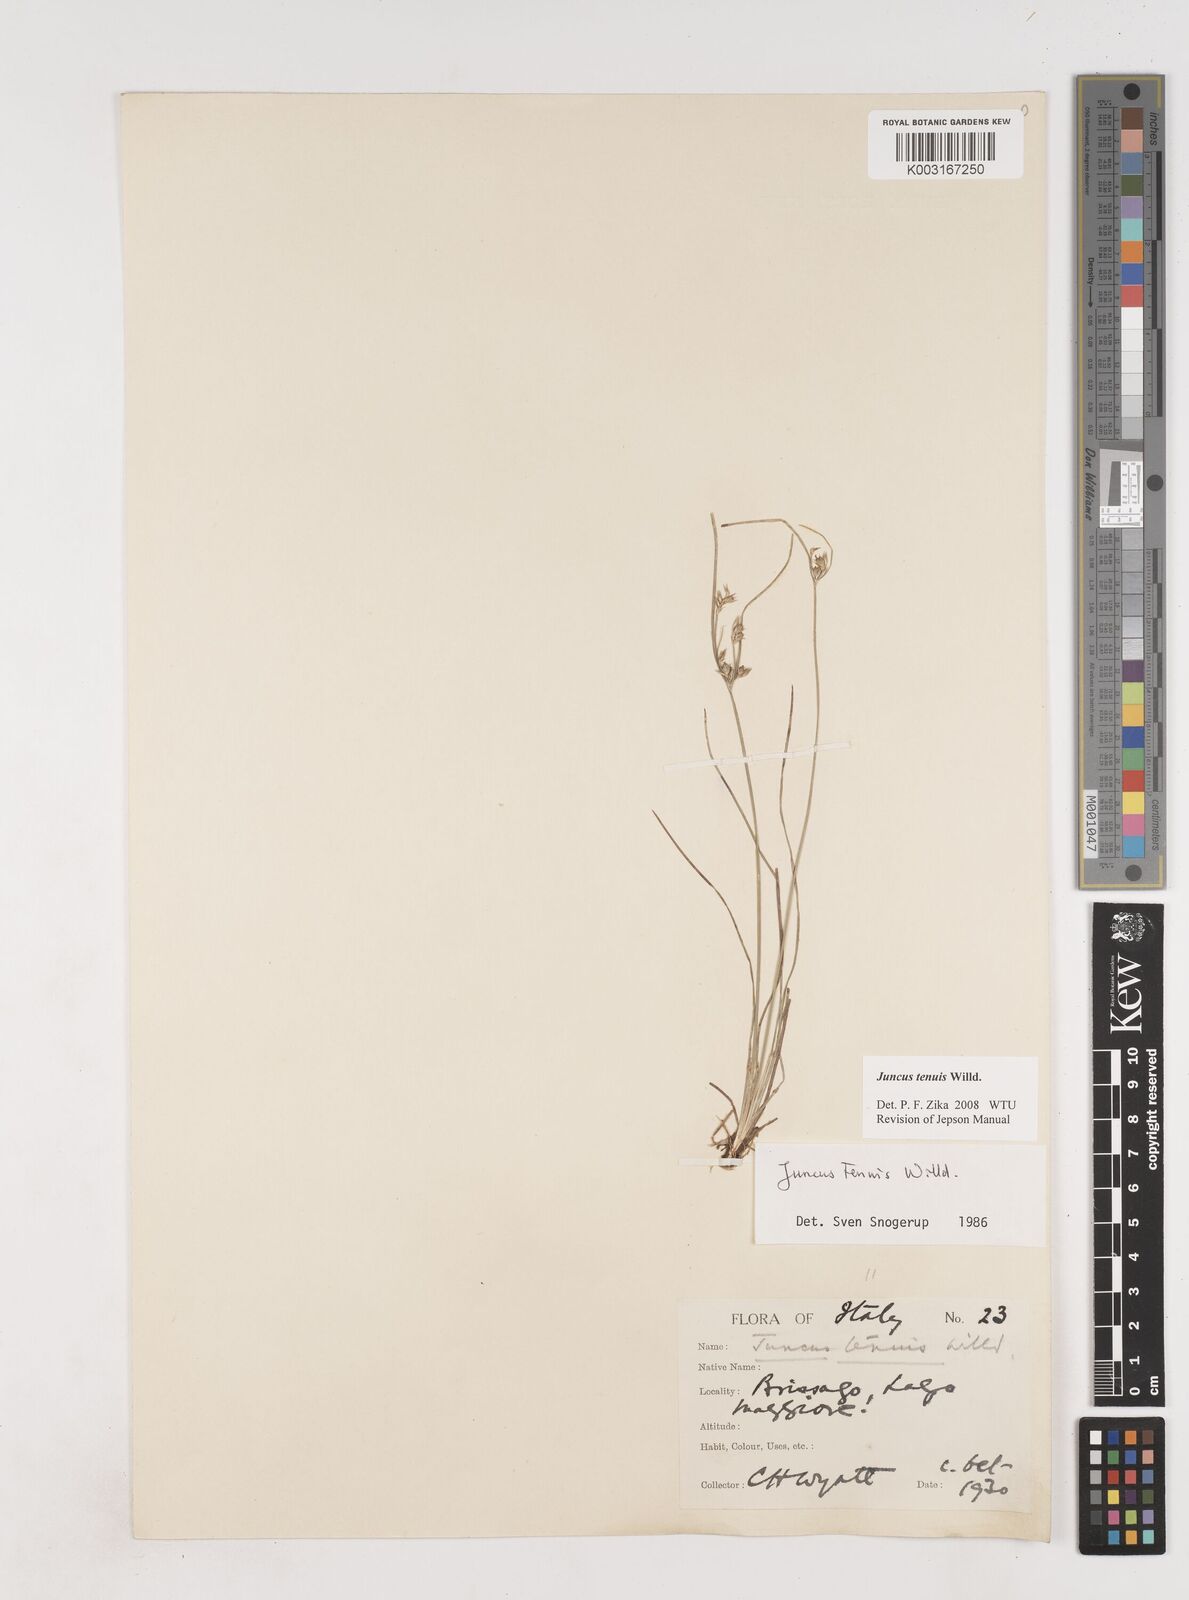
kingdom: Plantae
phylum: Tracheophyta
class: Liliopsida
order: Poales
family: Juncaceae
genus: Juncus
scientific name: Juncus tenuis
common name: Slender rush
